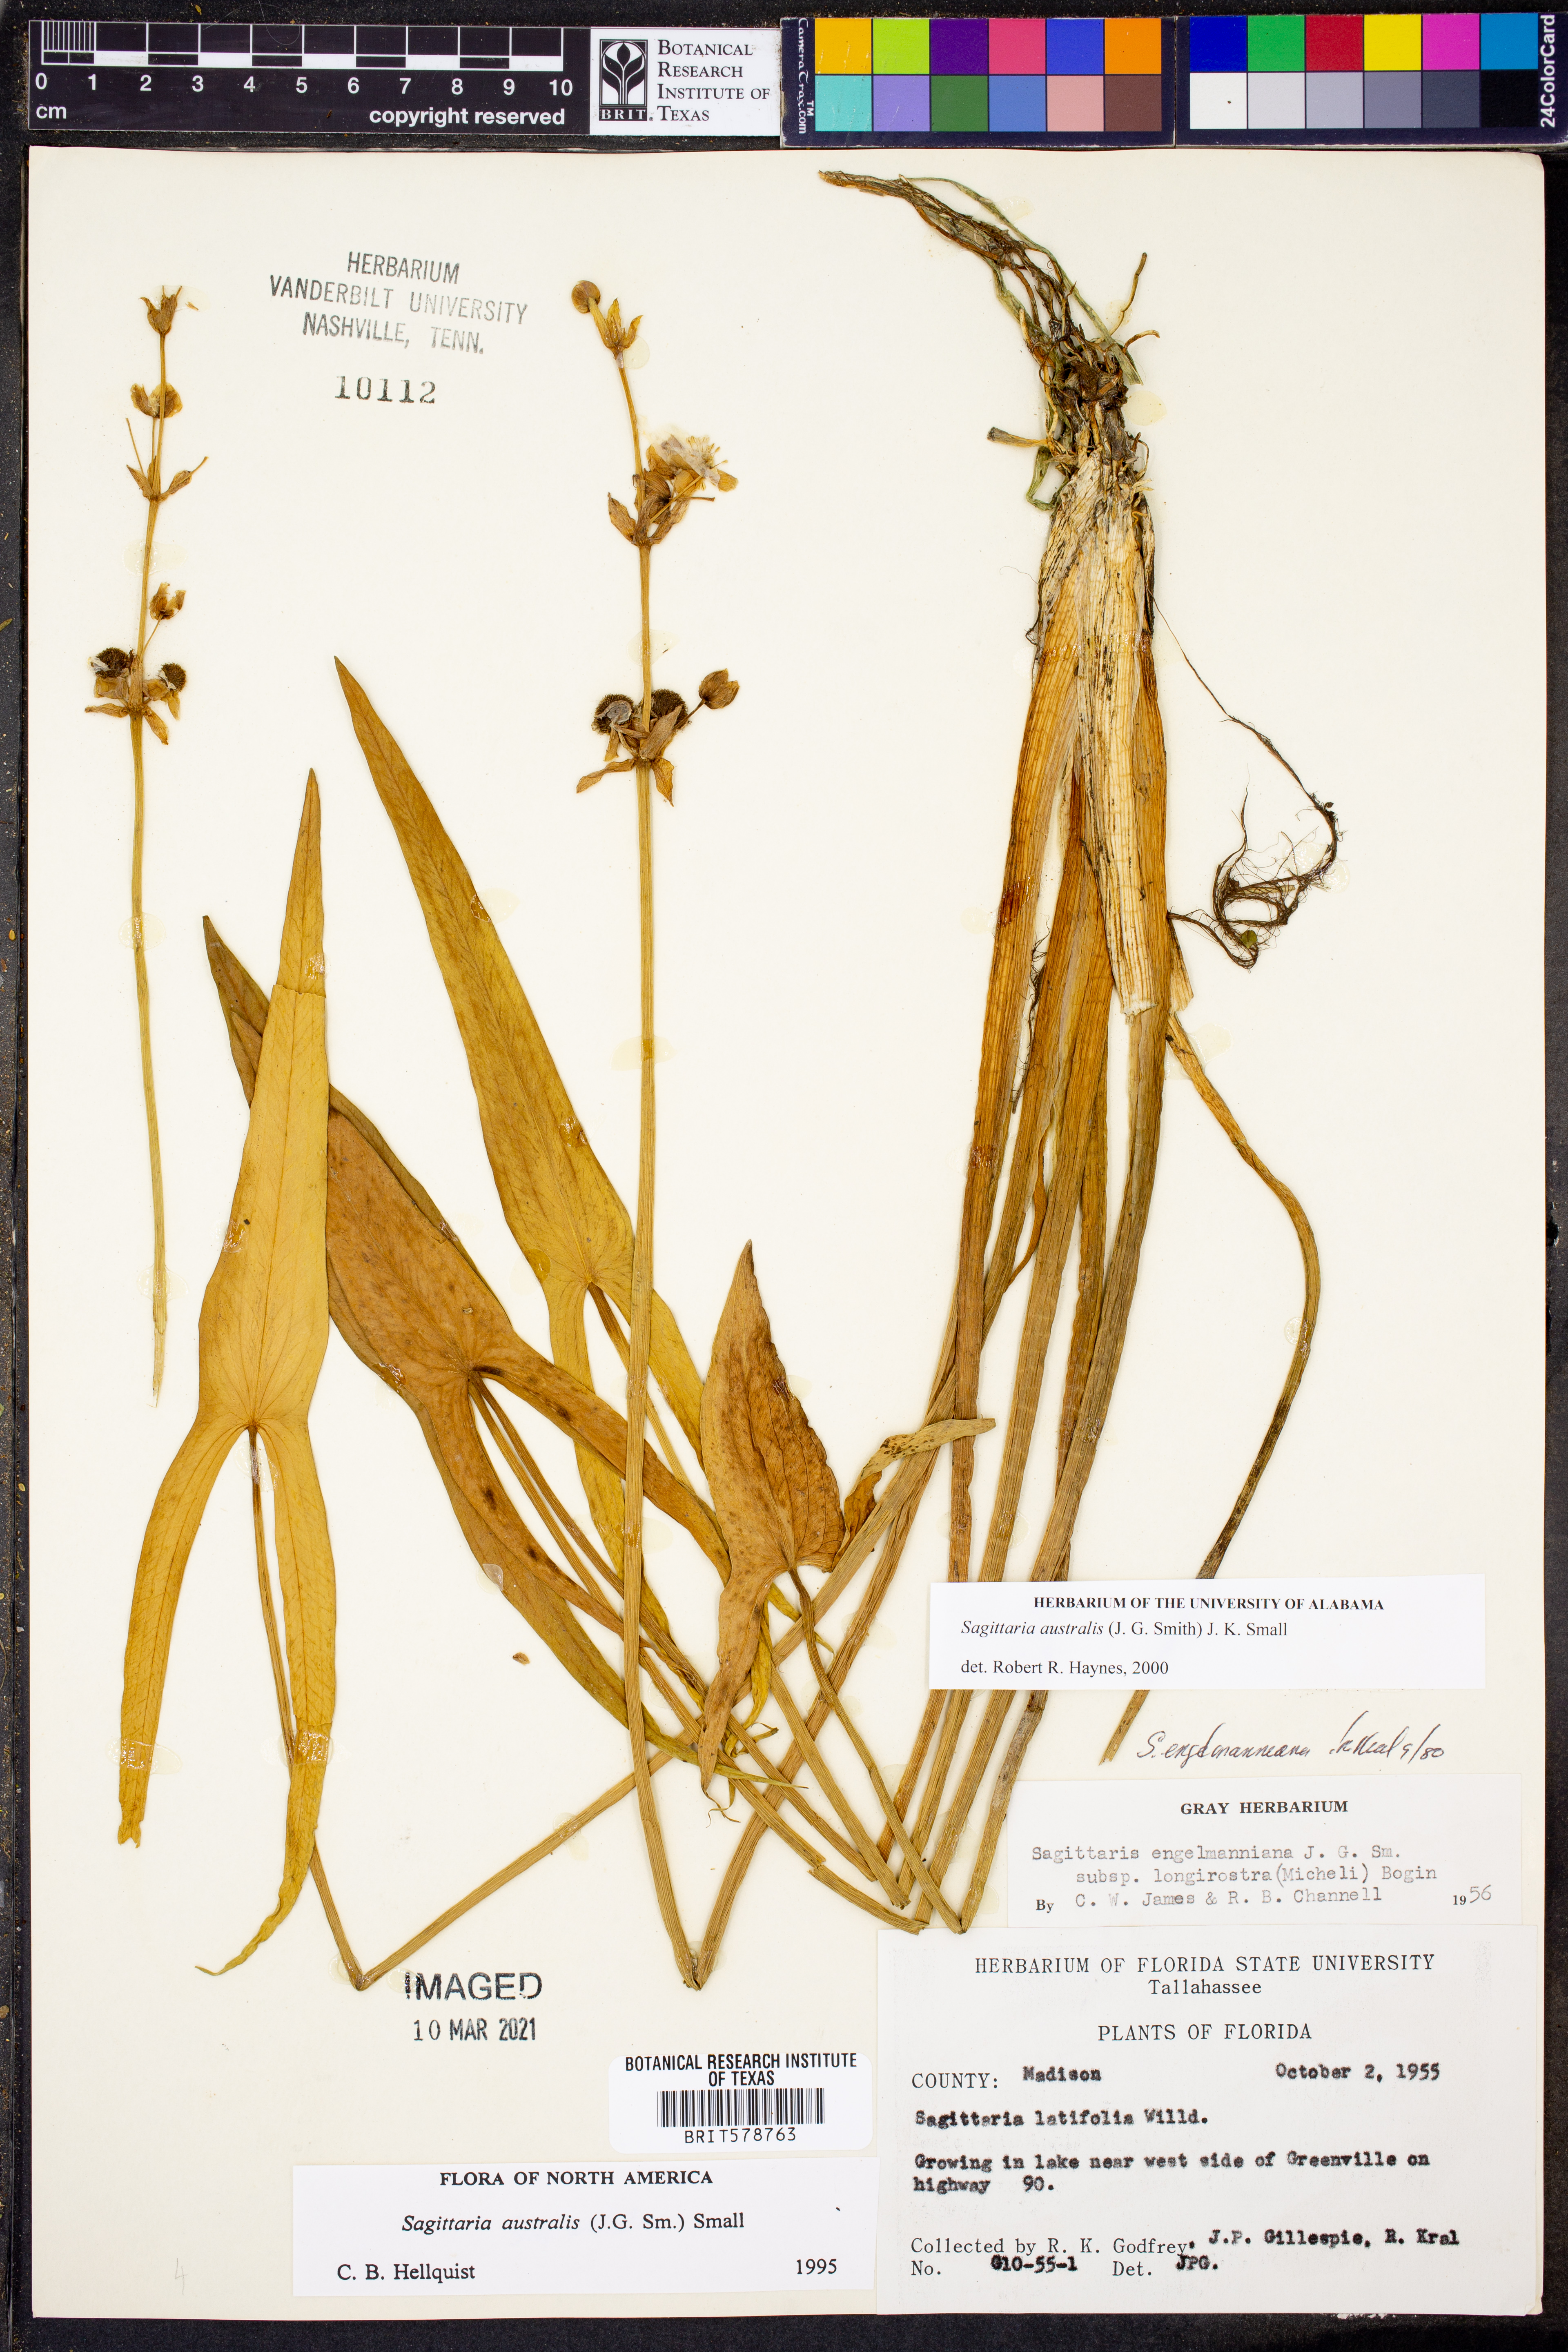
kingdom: Plantae
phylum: Tracheophyta
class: Liliopsida
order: Alismatales
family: Alismataceae
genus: Sagittaria
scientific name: Sagittaria australis
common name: Appalachian arrowhead
